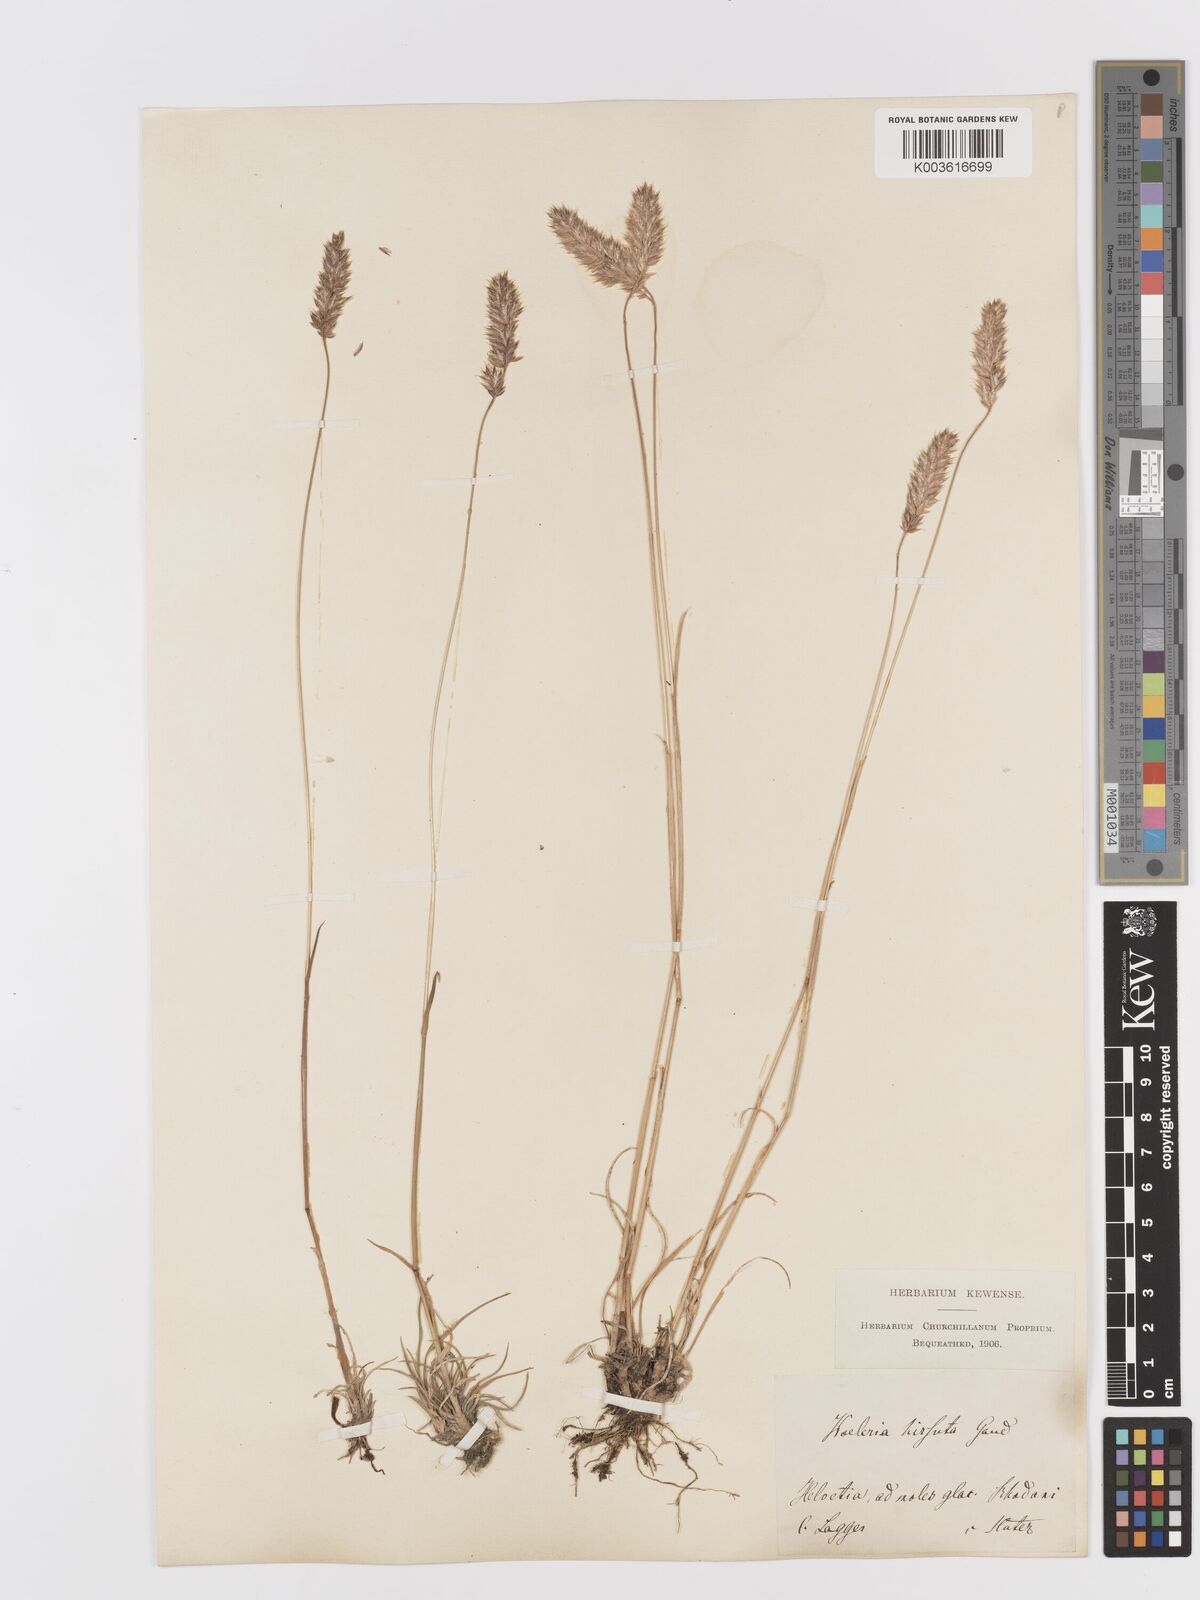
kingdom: Plantae
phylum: Tracheophyta
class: Liliopsida
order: Poales
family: Poaceae
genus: Koeleria
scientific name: Koeleria hirsuta
